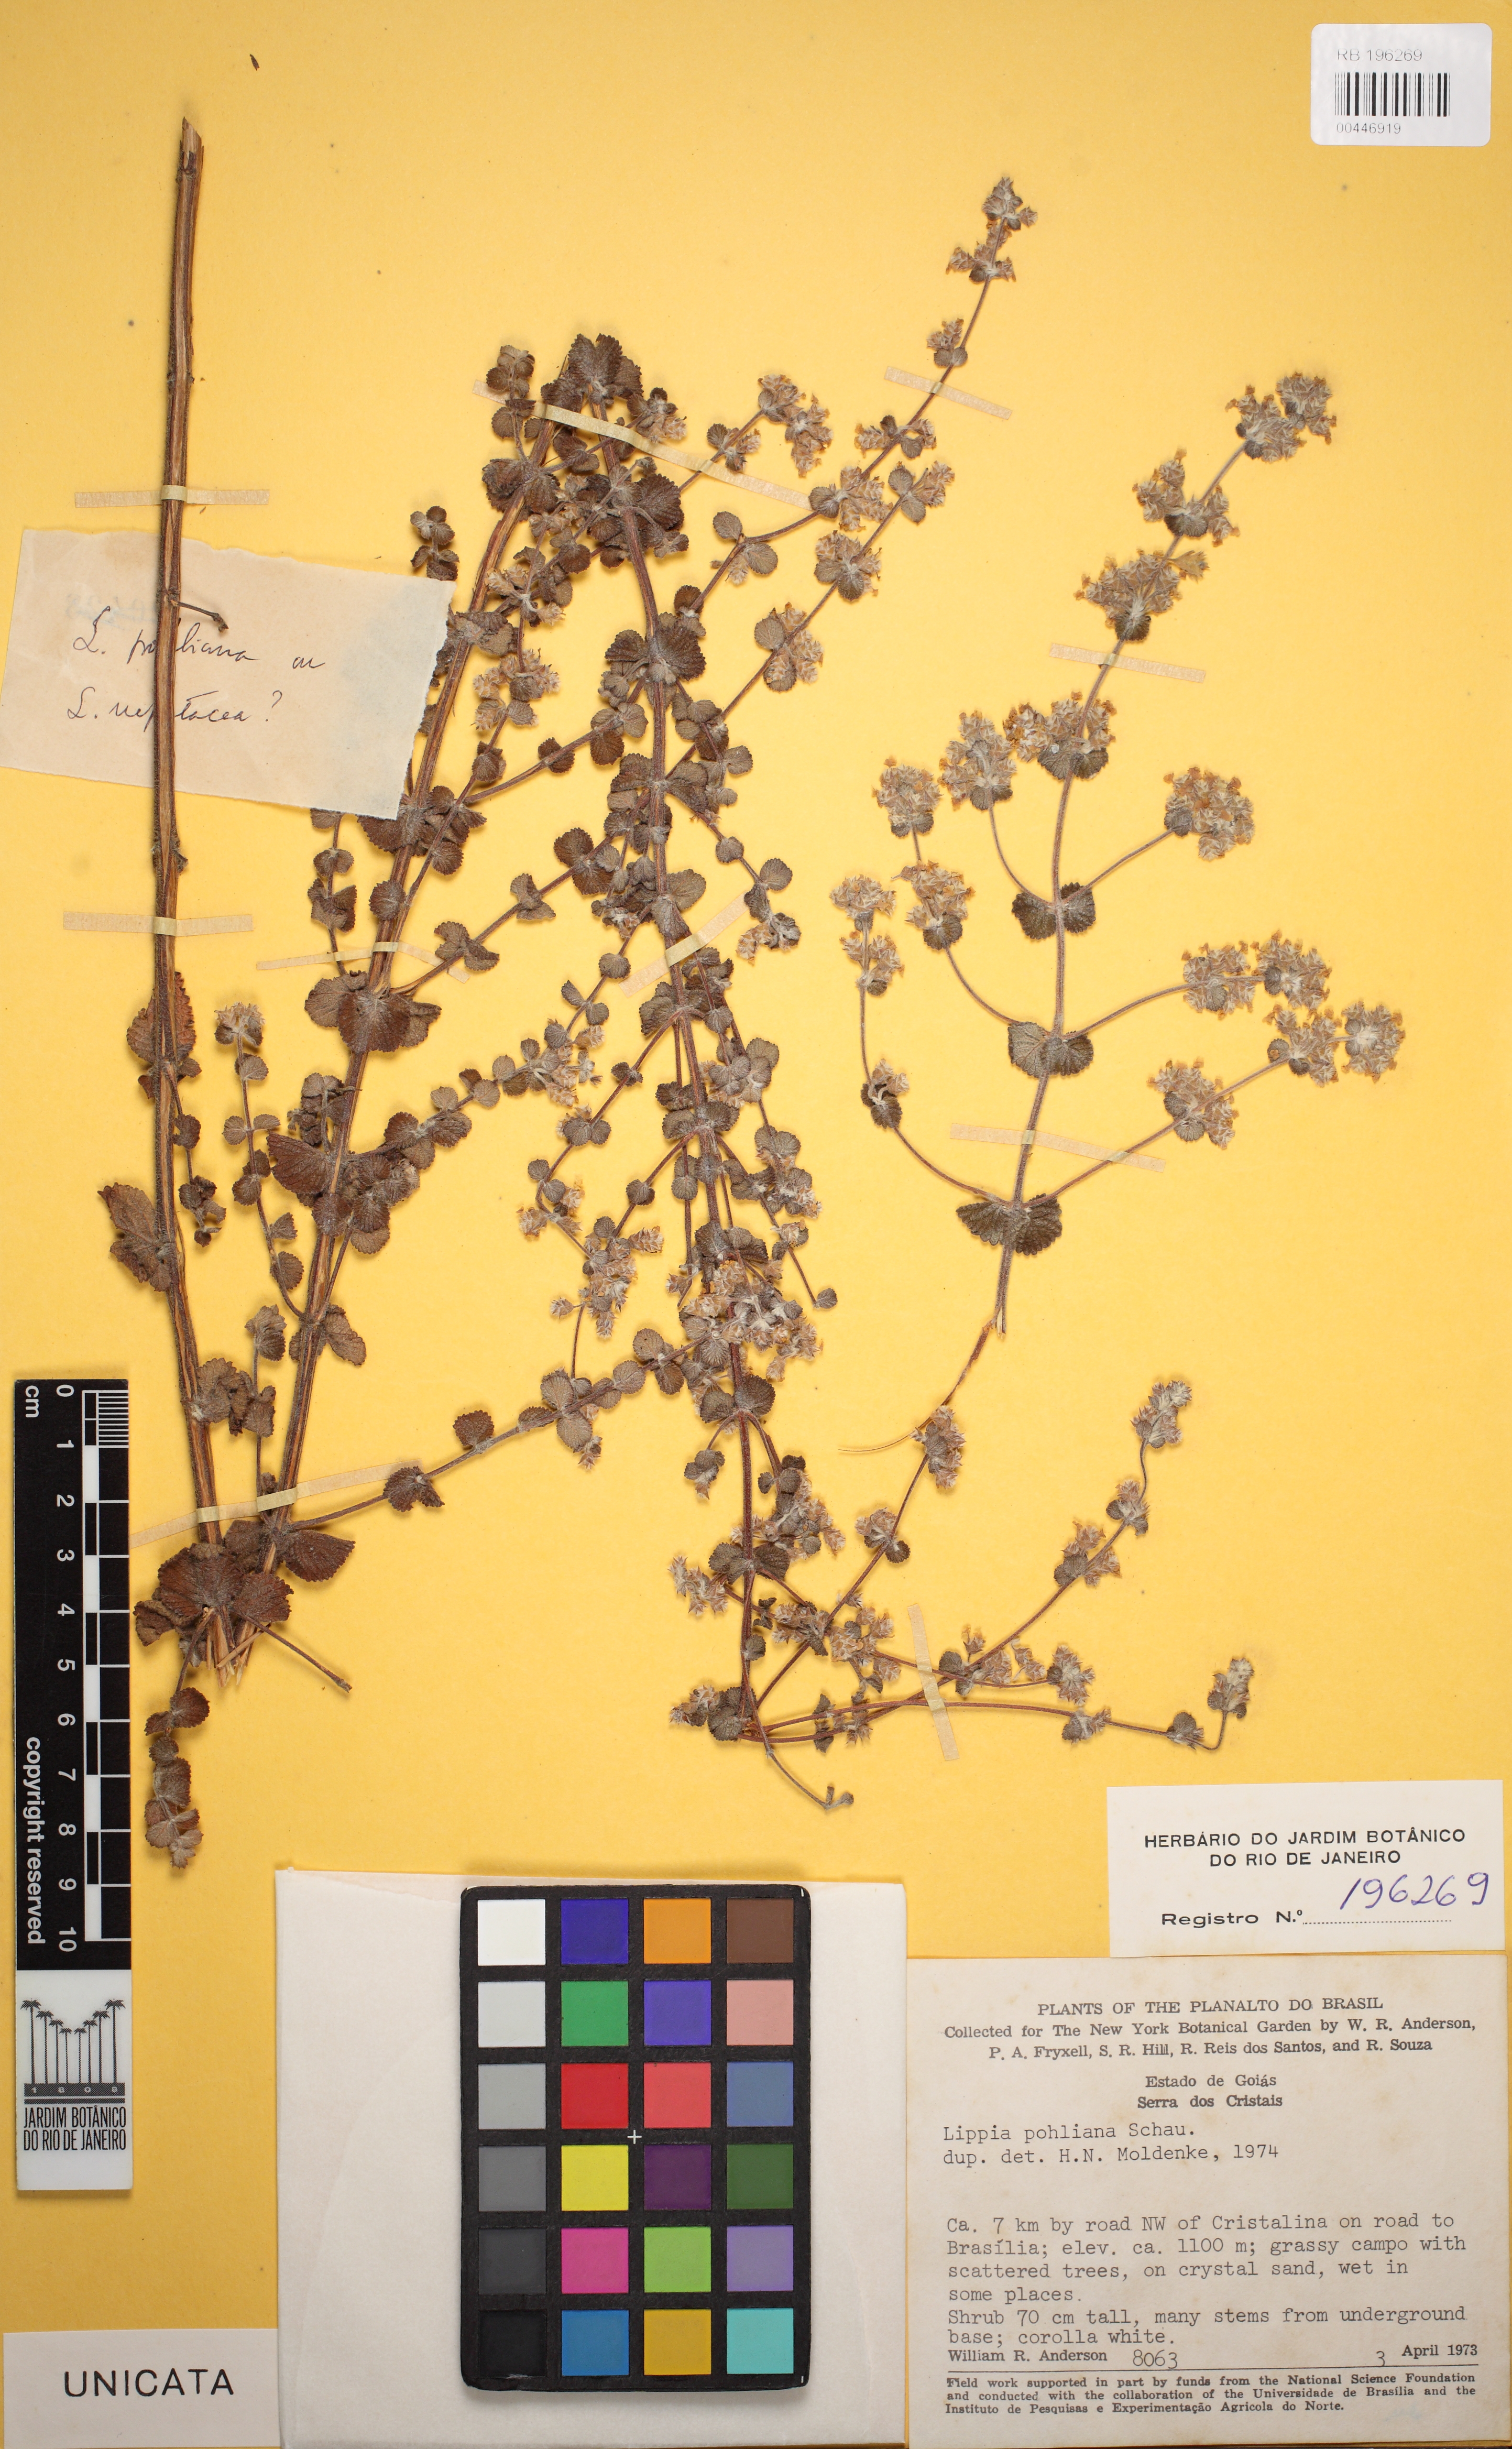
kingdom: Plantae
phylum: Tracheophyta
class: Magnoliopsida
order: Lamiales
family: Verbenaceae
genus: Lippia
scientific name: Lippia martiana
